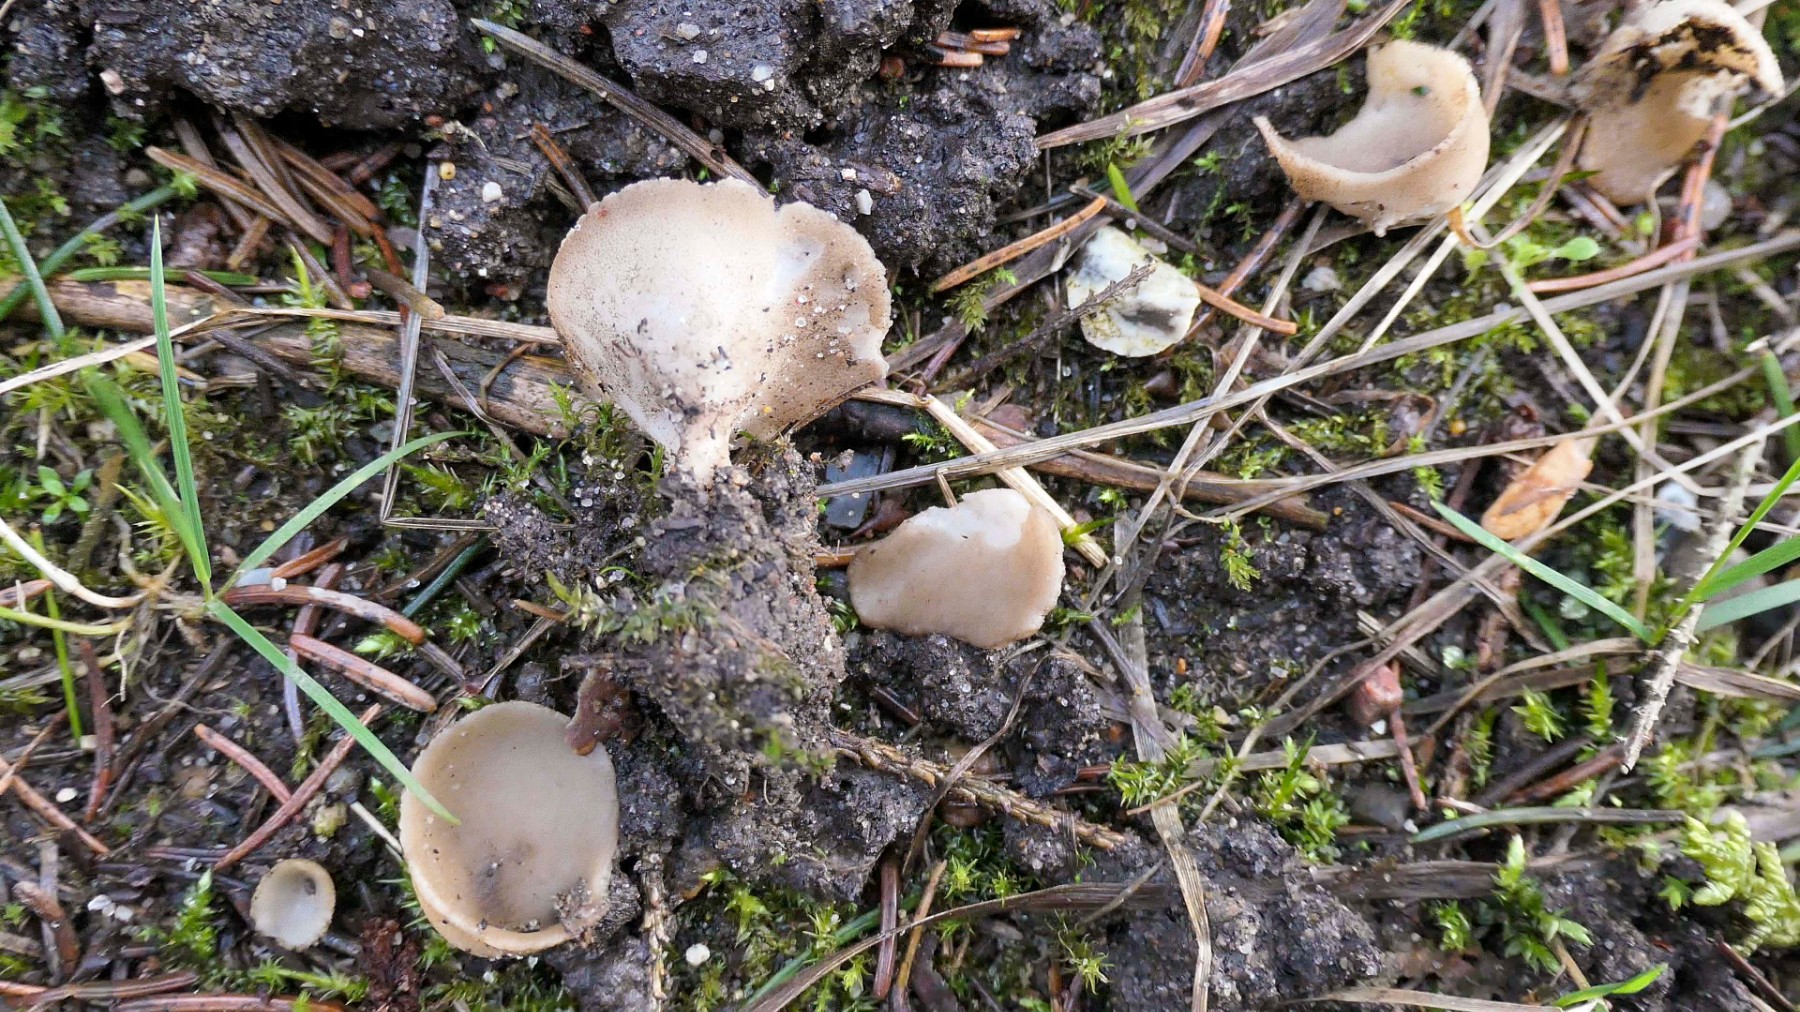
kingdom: Fungi
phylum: Ascomycota
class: Pezizomycetes
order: Pezizales
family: Helvellaceae
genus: Dissingia
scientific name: Dissingia confusa
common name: gran-foldhat
